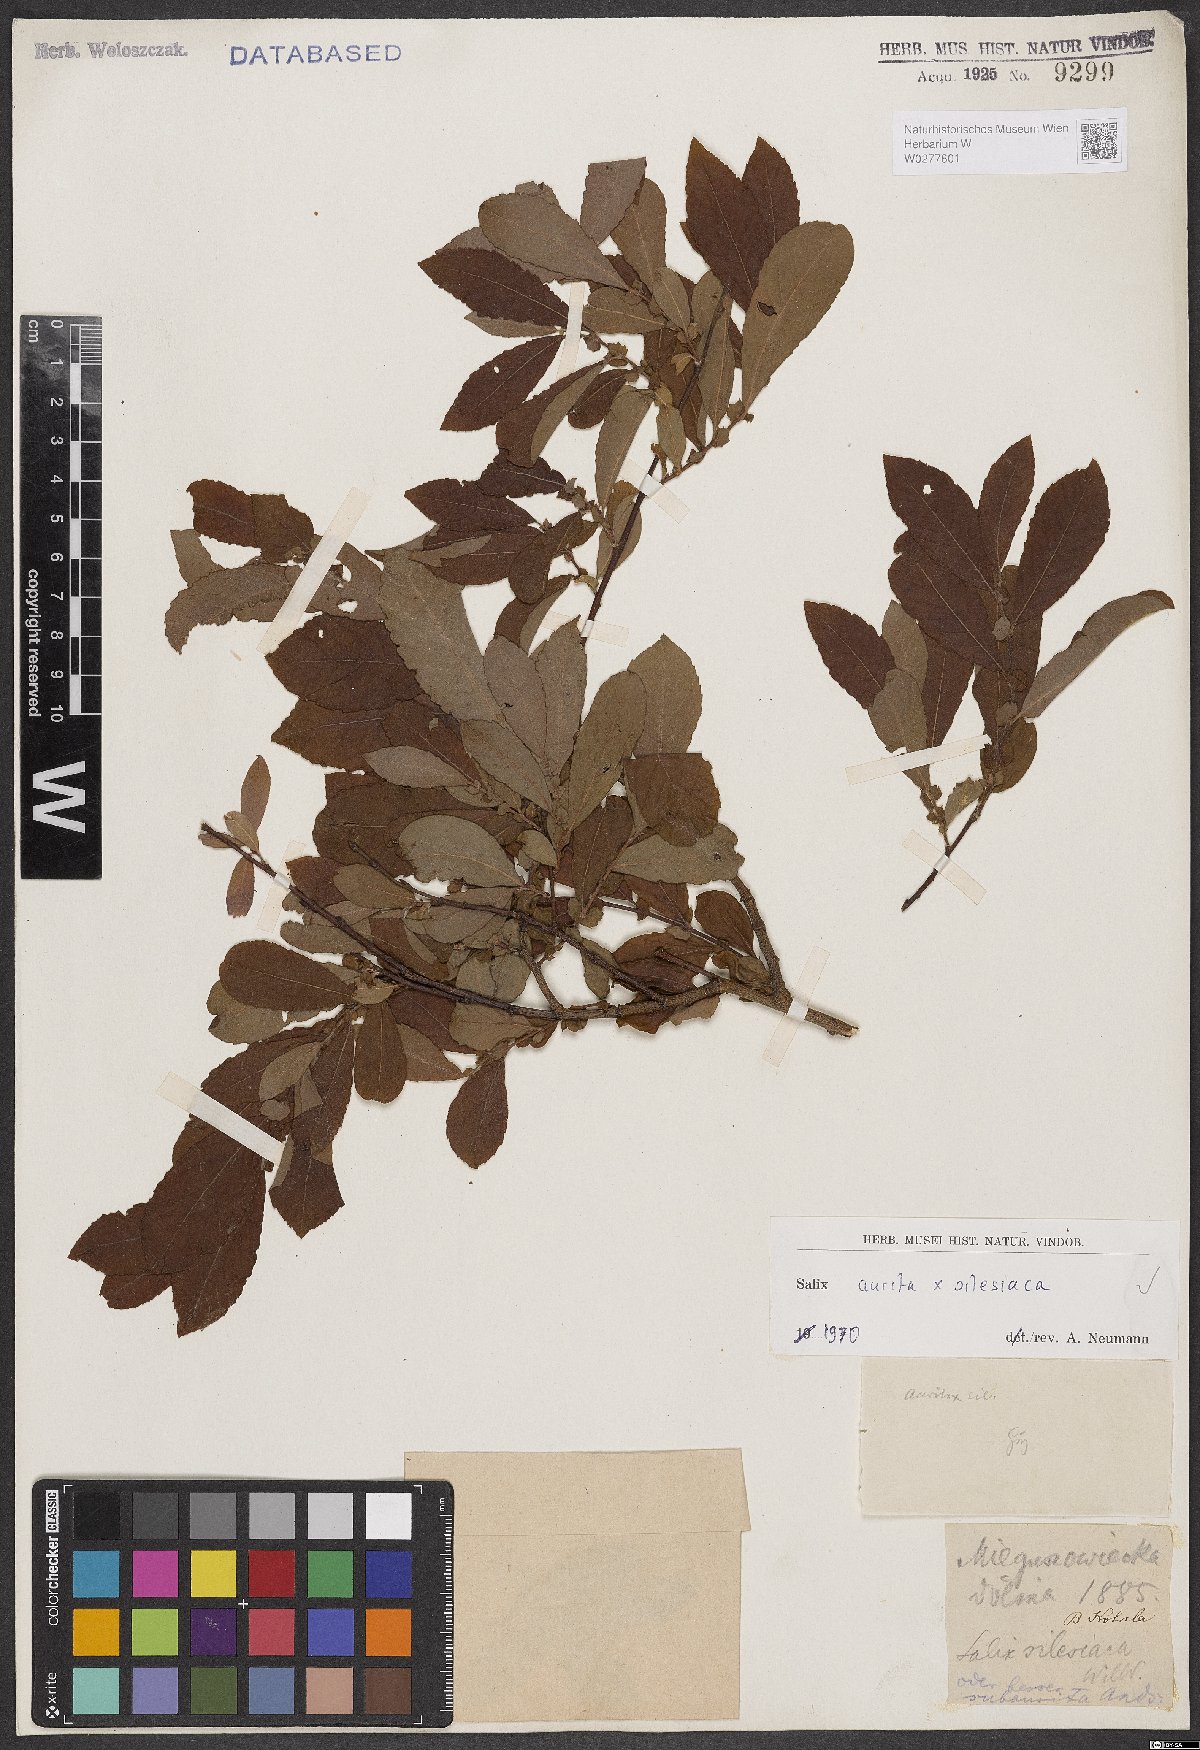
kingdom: Plantae
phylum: Tracheophyta
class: Magnoliopsida
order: Malpighiales
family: Salicaceae
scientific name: Salicaceae
